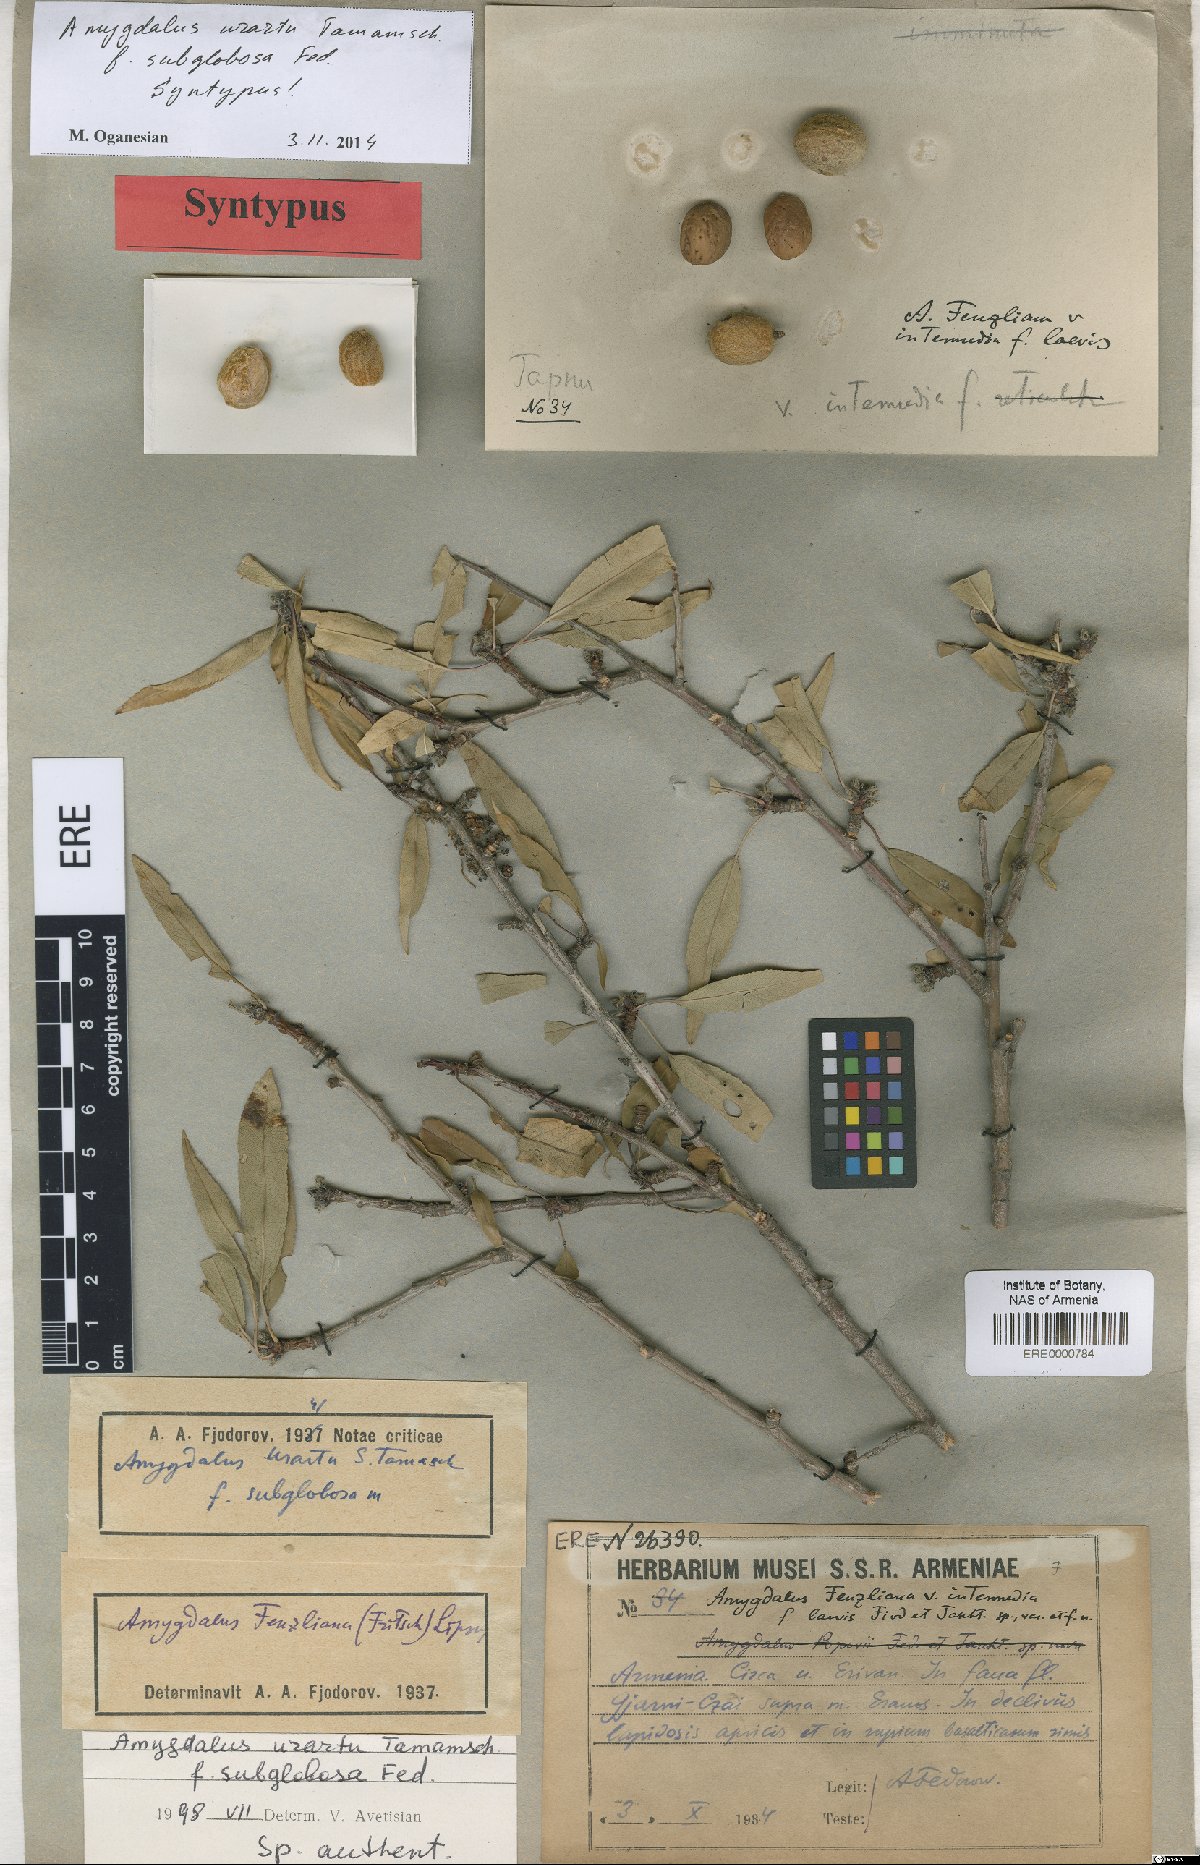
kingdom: Plantae
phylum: Tracheophyta
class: Magnoliopsida
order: Rosales
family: Rosaceae
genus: Prunus
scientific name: Prunus urartu
